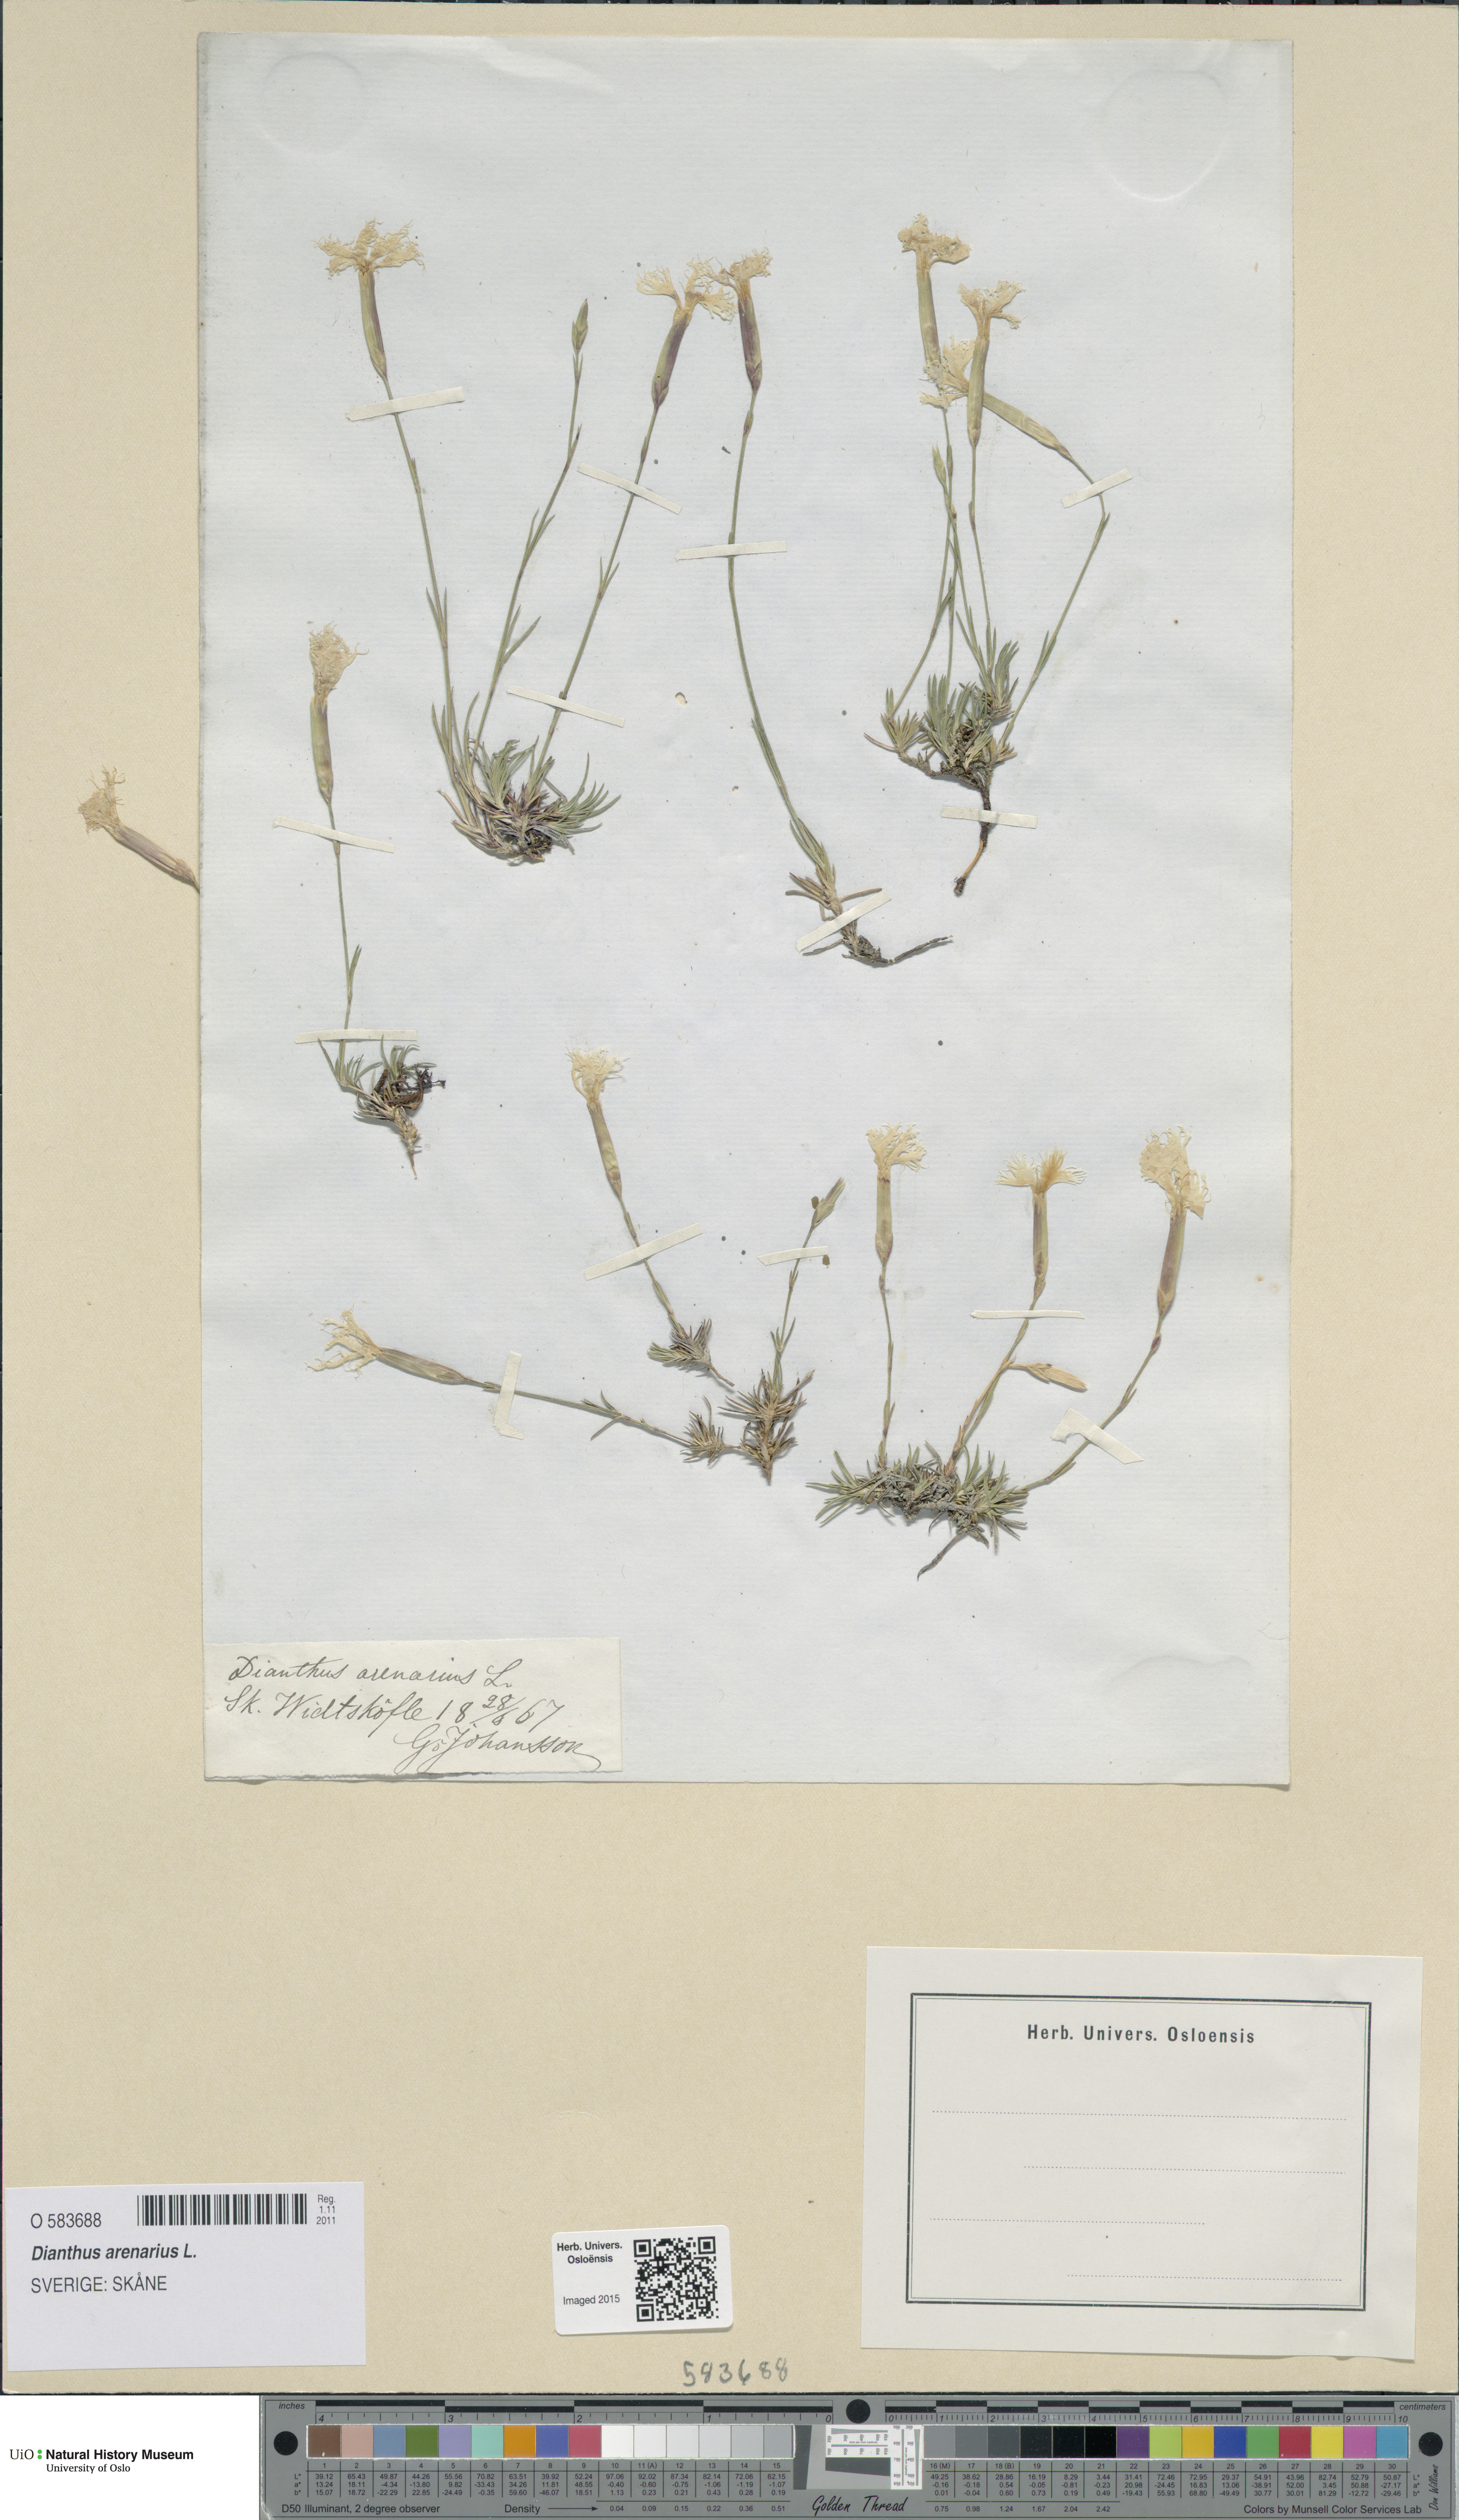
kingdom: Plantae
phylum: Tracheophyta
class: Magnoliopsida
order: Caryophyllales
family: Caryophyllaceae
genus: Dianthus
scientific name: Dianthus arenarius
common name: Stone pink
